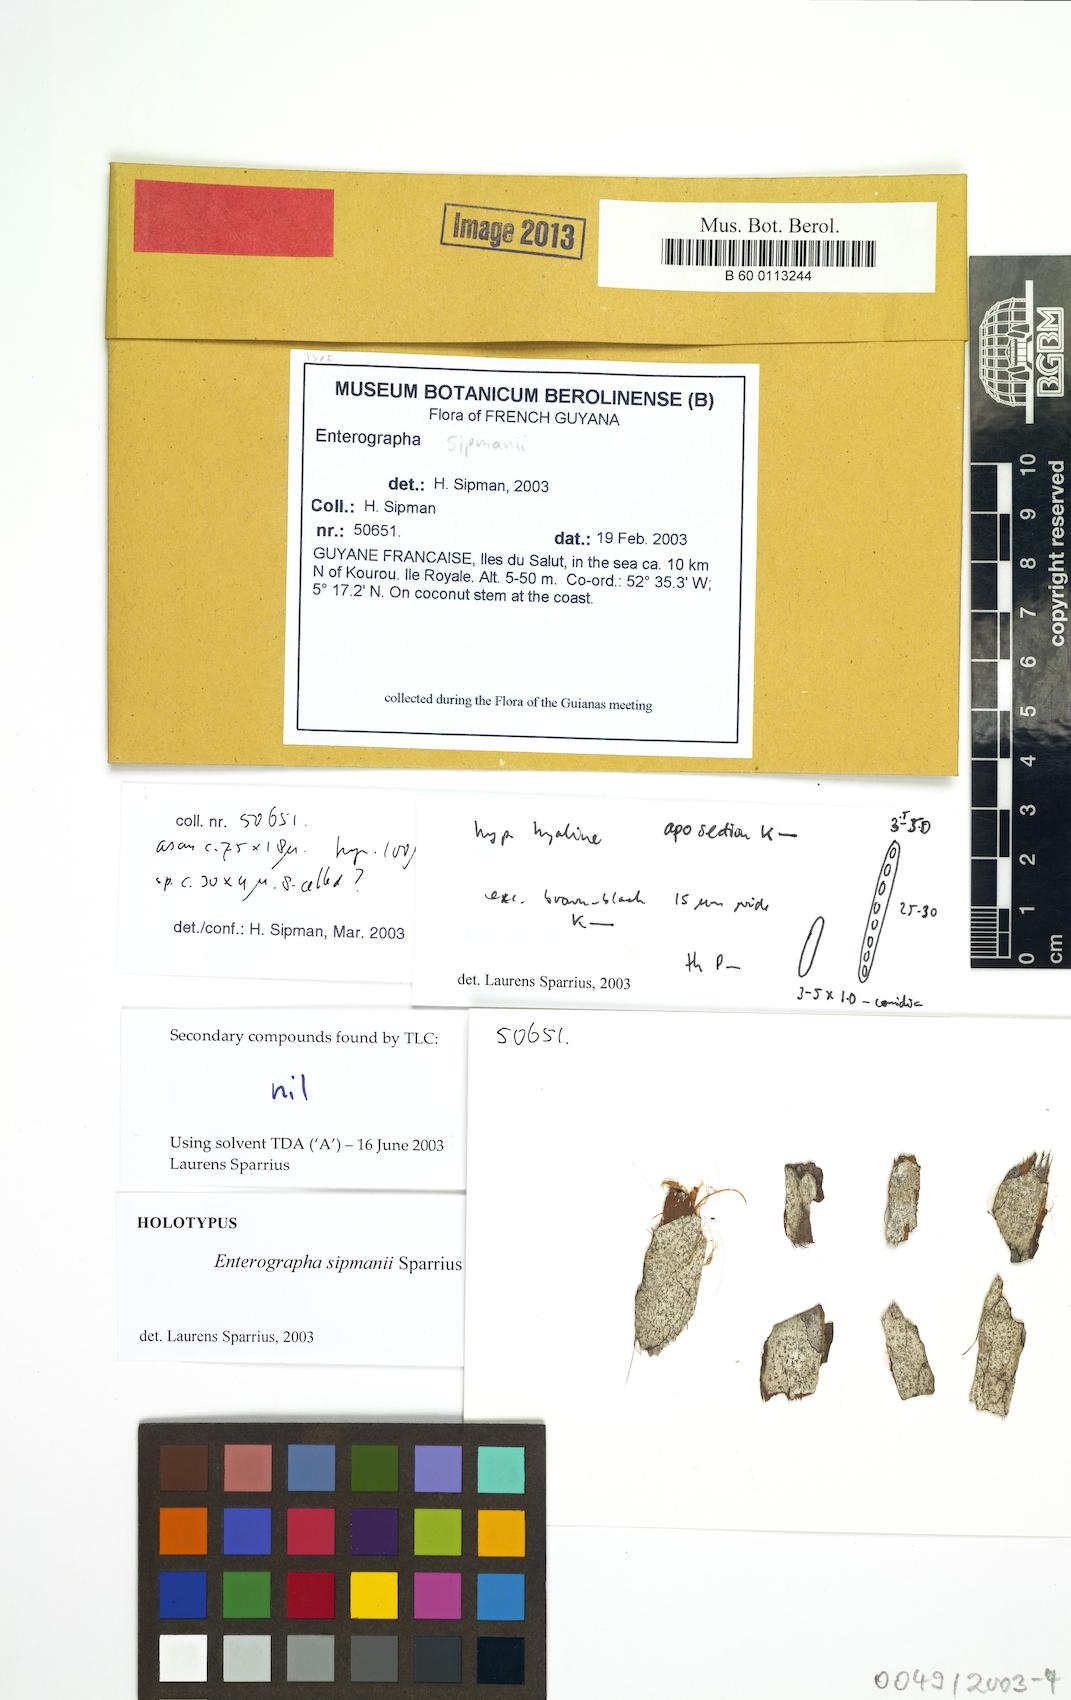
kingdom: Fungi
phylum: Ascomycota
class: Arthoniomycetes
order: Arthoniales
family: Roccellaceae
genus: Enterographa
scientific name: Enterographa sipmanii
